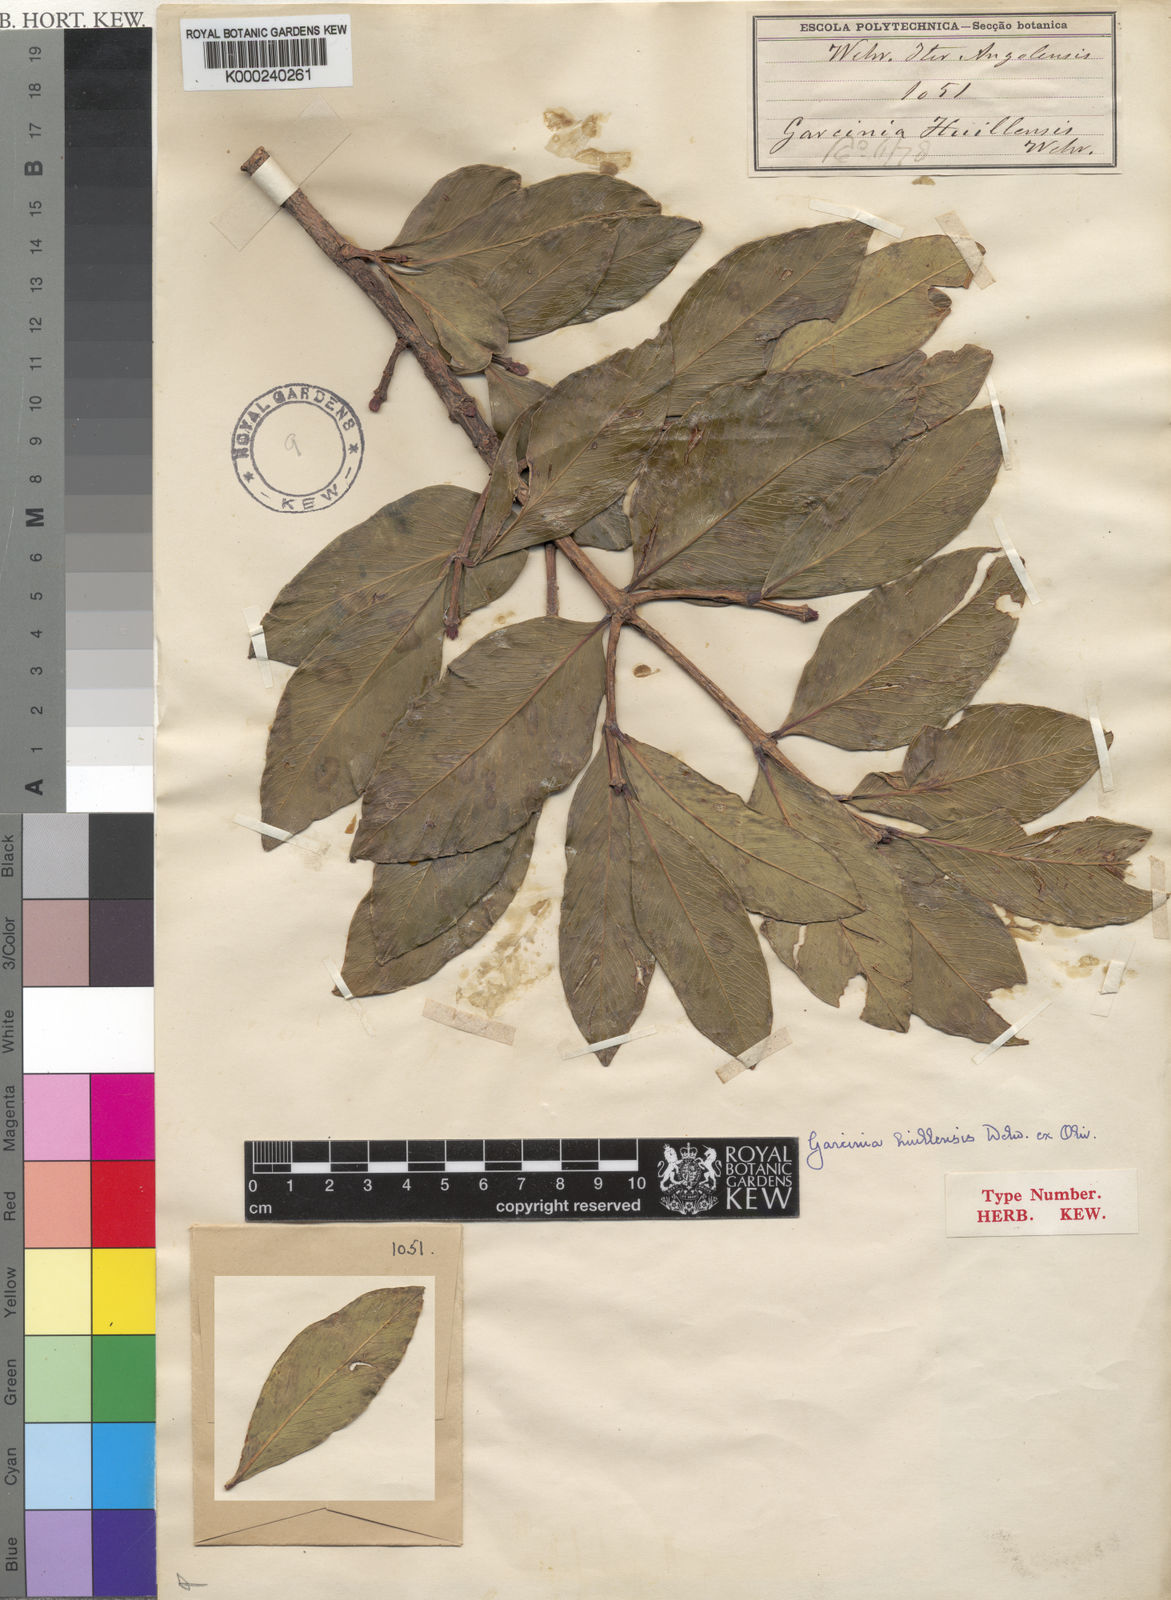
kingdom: Plantae
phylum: Tracheophyta
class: Magnoliopsida
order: Malpighiales
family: Clusiaceae
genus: Garcinia
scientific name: Garcinia huillensis
